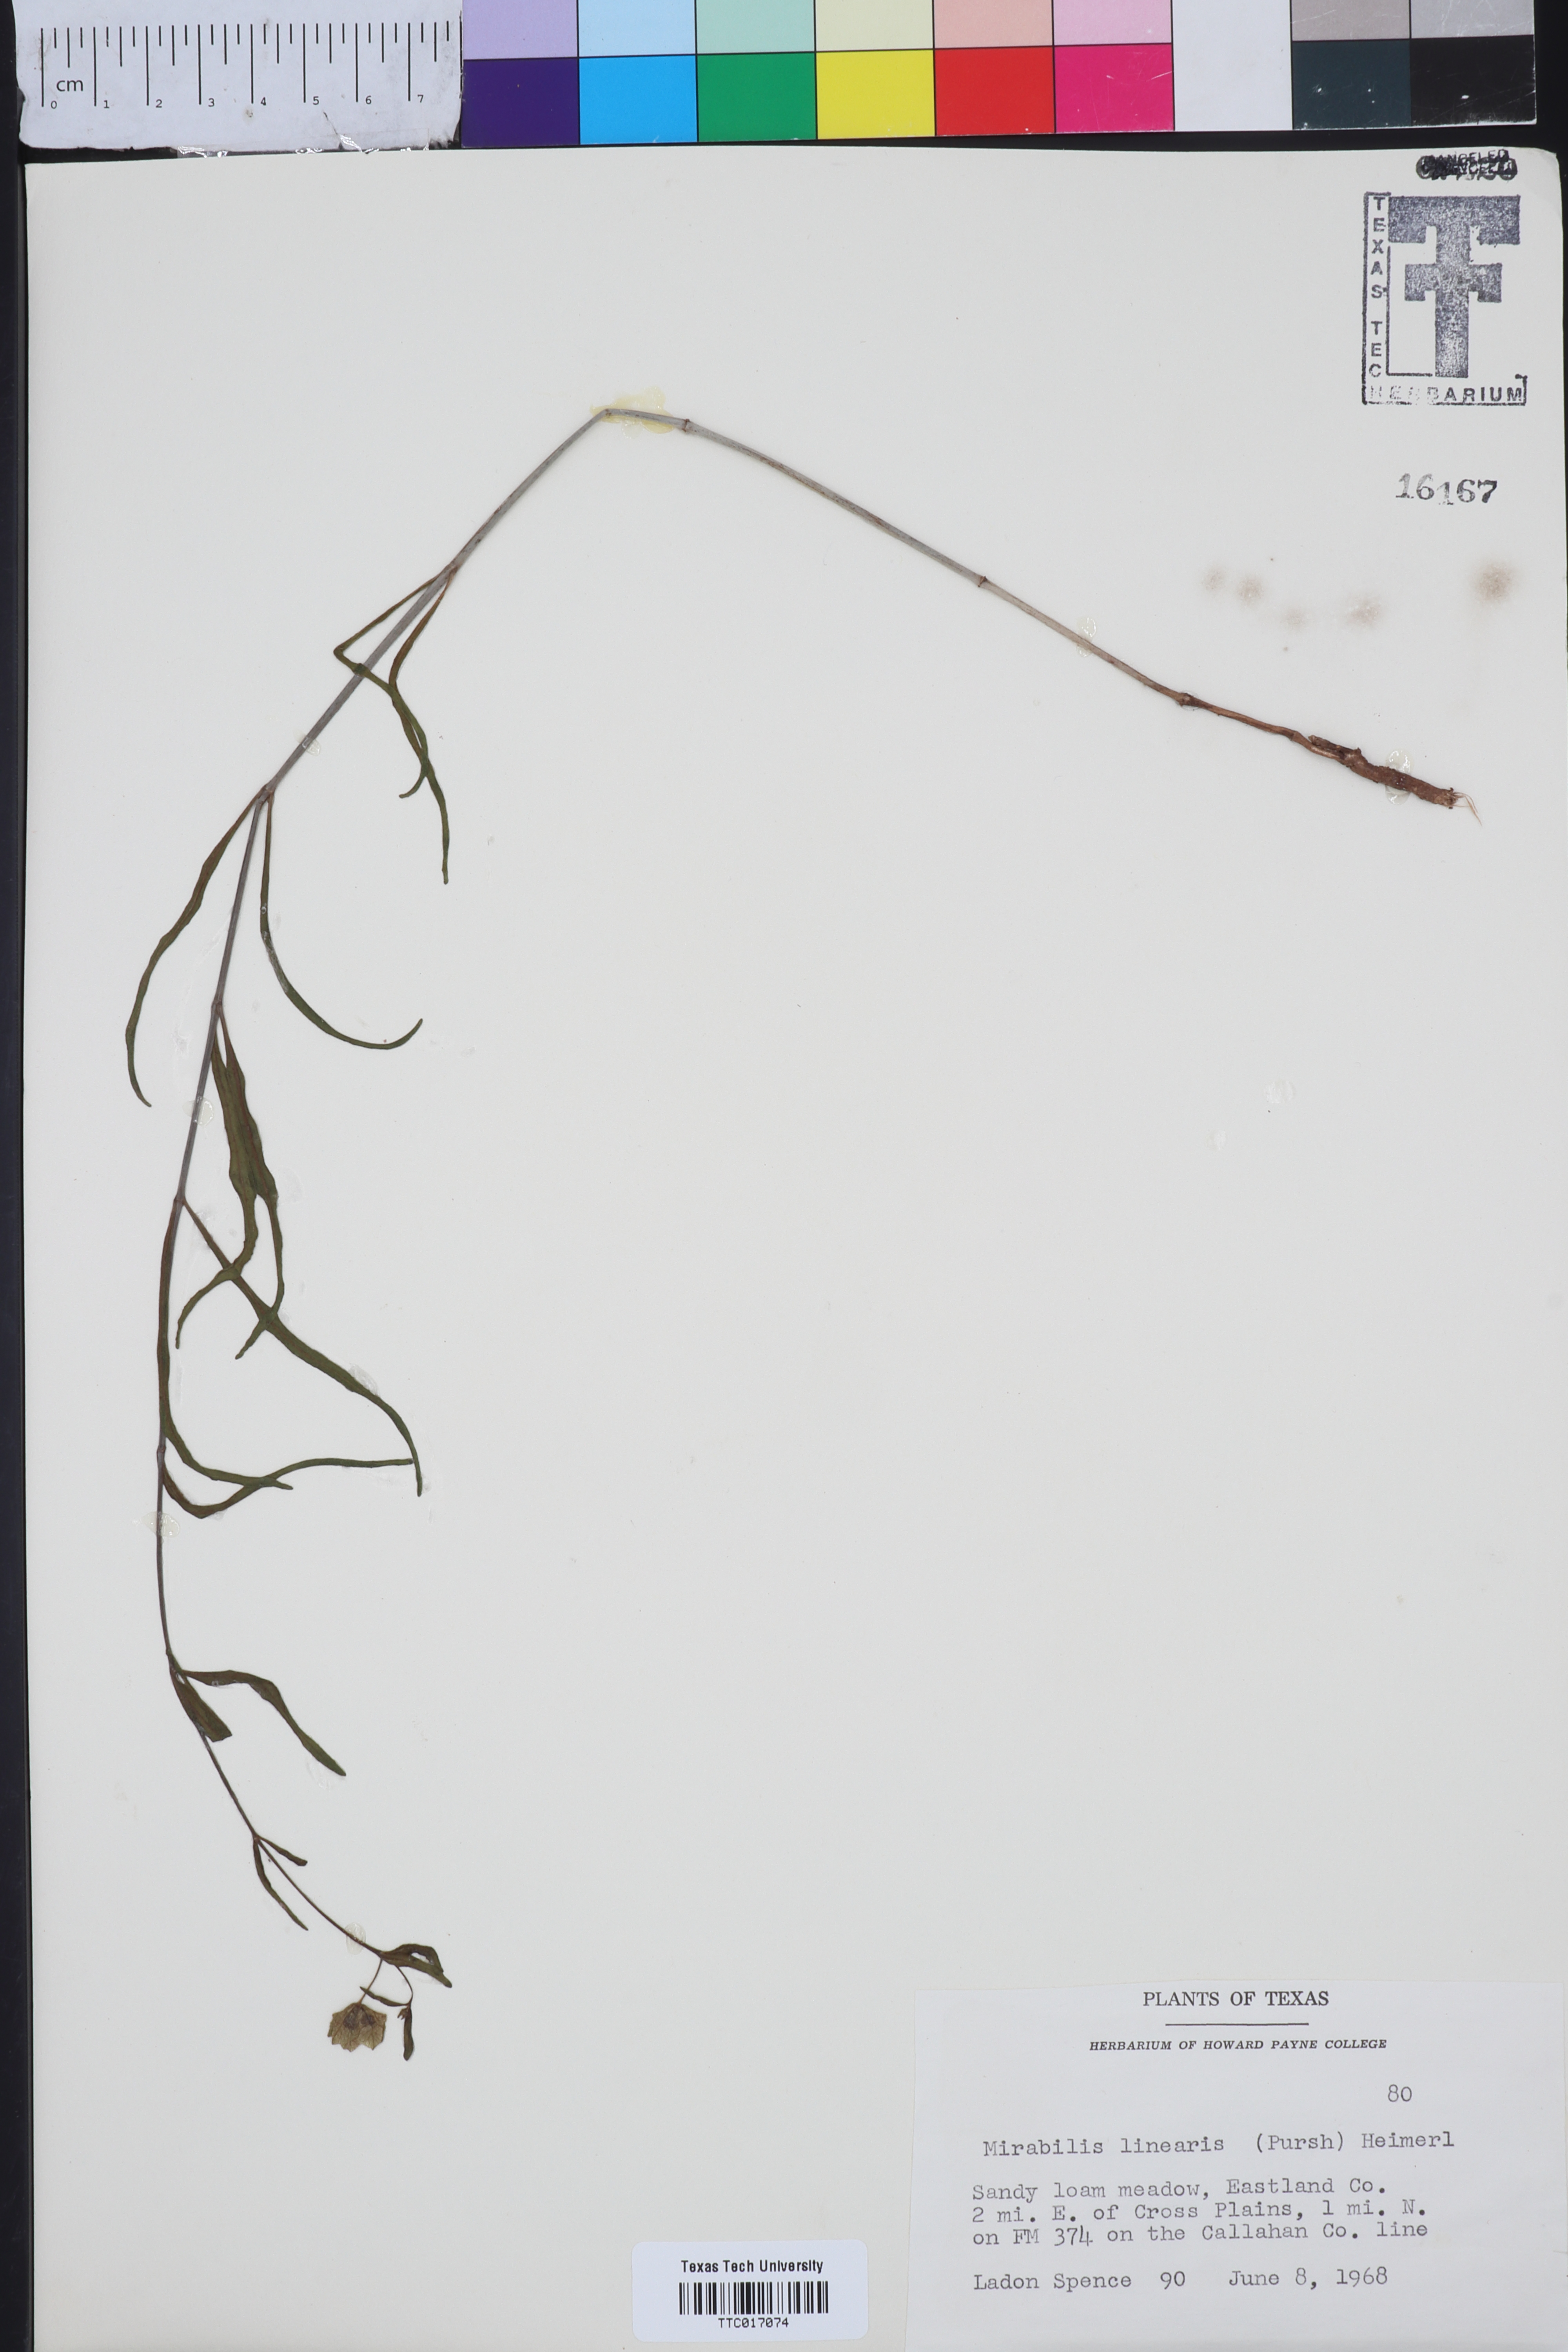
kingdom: Plantae
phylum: Tracheophyta
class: Magnoliopsida
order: Caryophyllales
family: Nyctaginaceae
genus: Mirabilis
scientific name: Mirabilis linearis
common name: Linear-leaved four-o'clock
